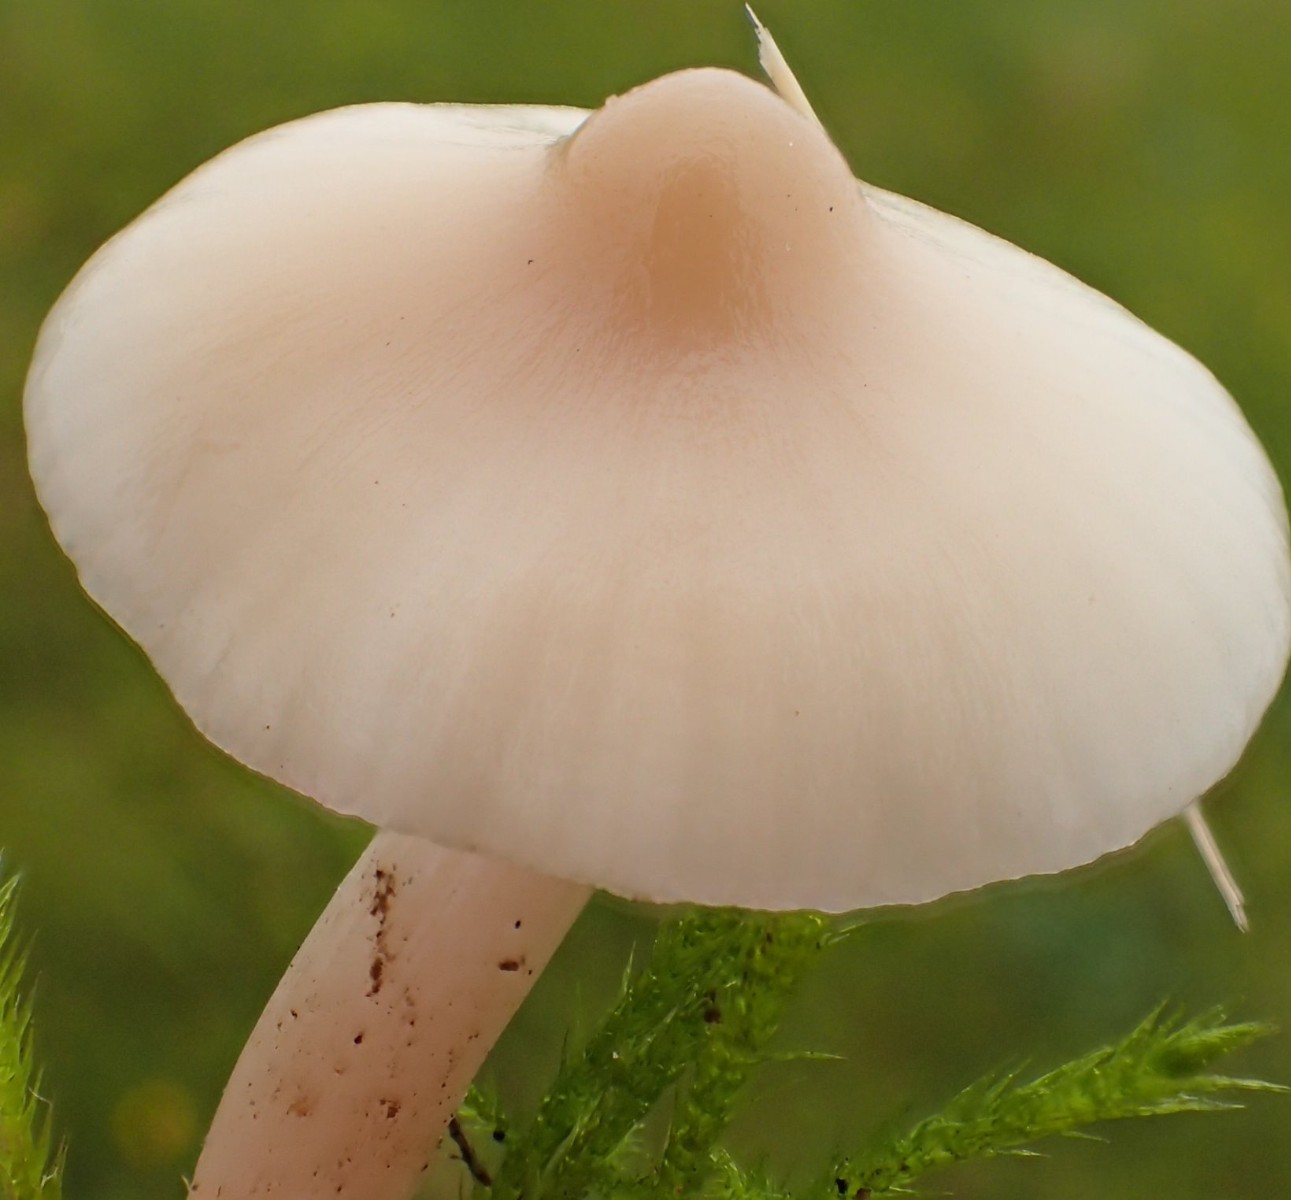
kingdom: Fungi
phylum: Basidiomycota
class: Agaricomycetes
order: Agaricales
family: Hygrophoraceae
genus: Cuphophyllus
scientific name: Cuphophyllus virgineus
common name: brunøjet vokshat
